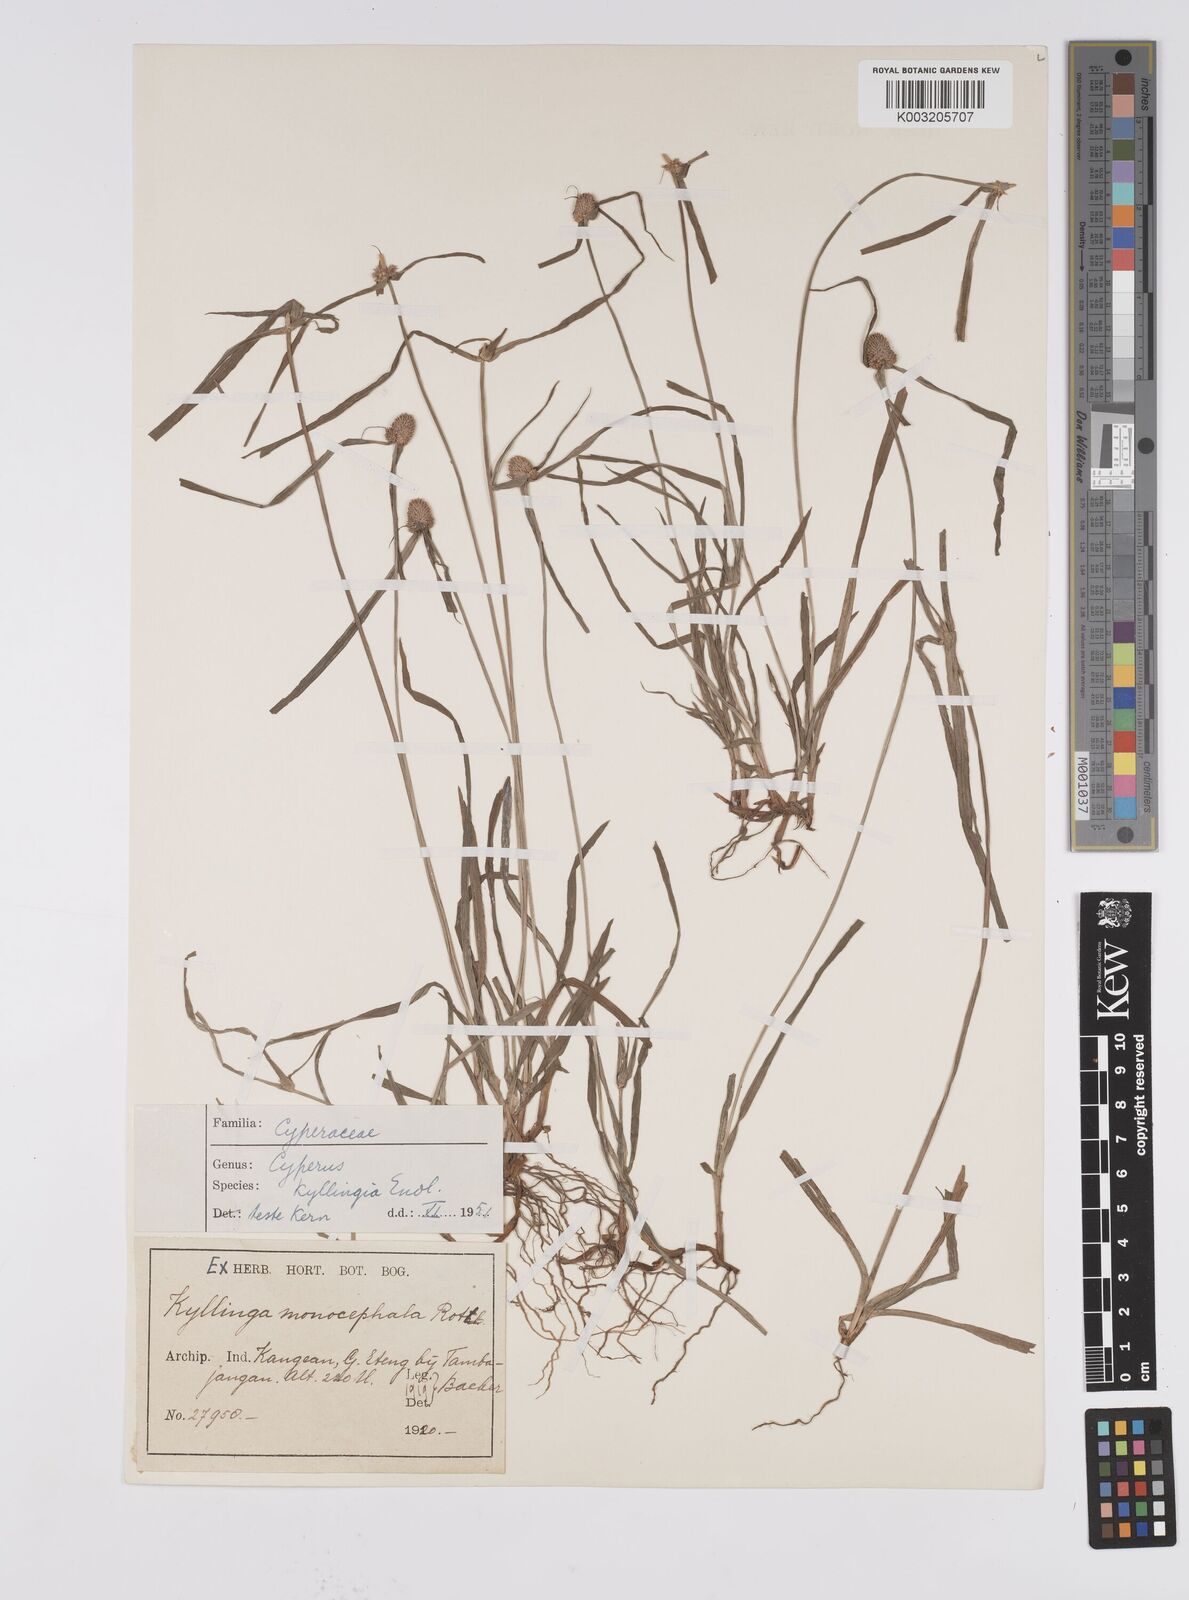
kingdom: Plantae
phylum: Tracheophyta
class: Liliopsida
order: Poales
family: Cyperaceae
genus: Cyperus
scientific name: Cyperus nemoralis
